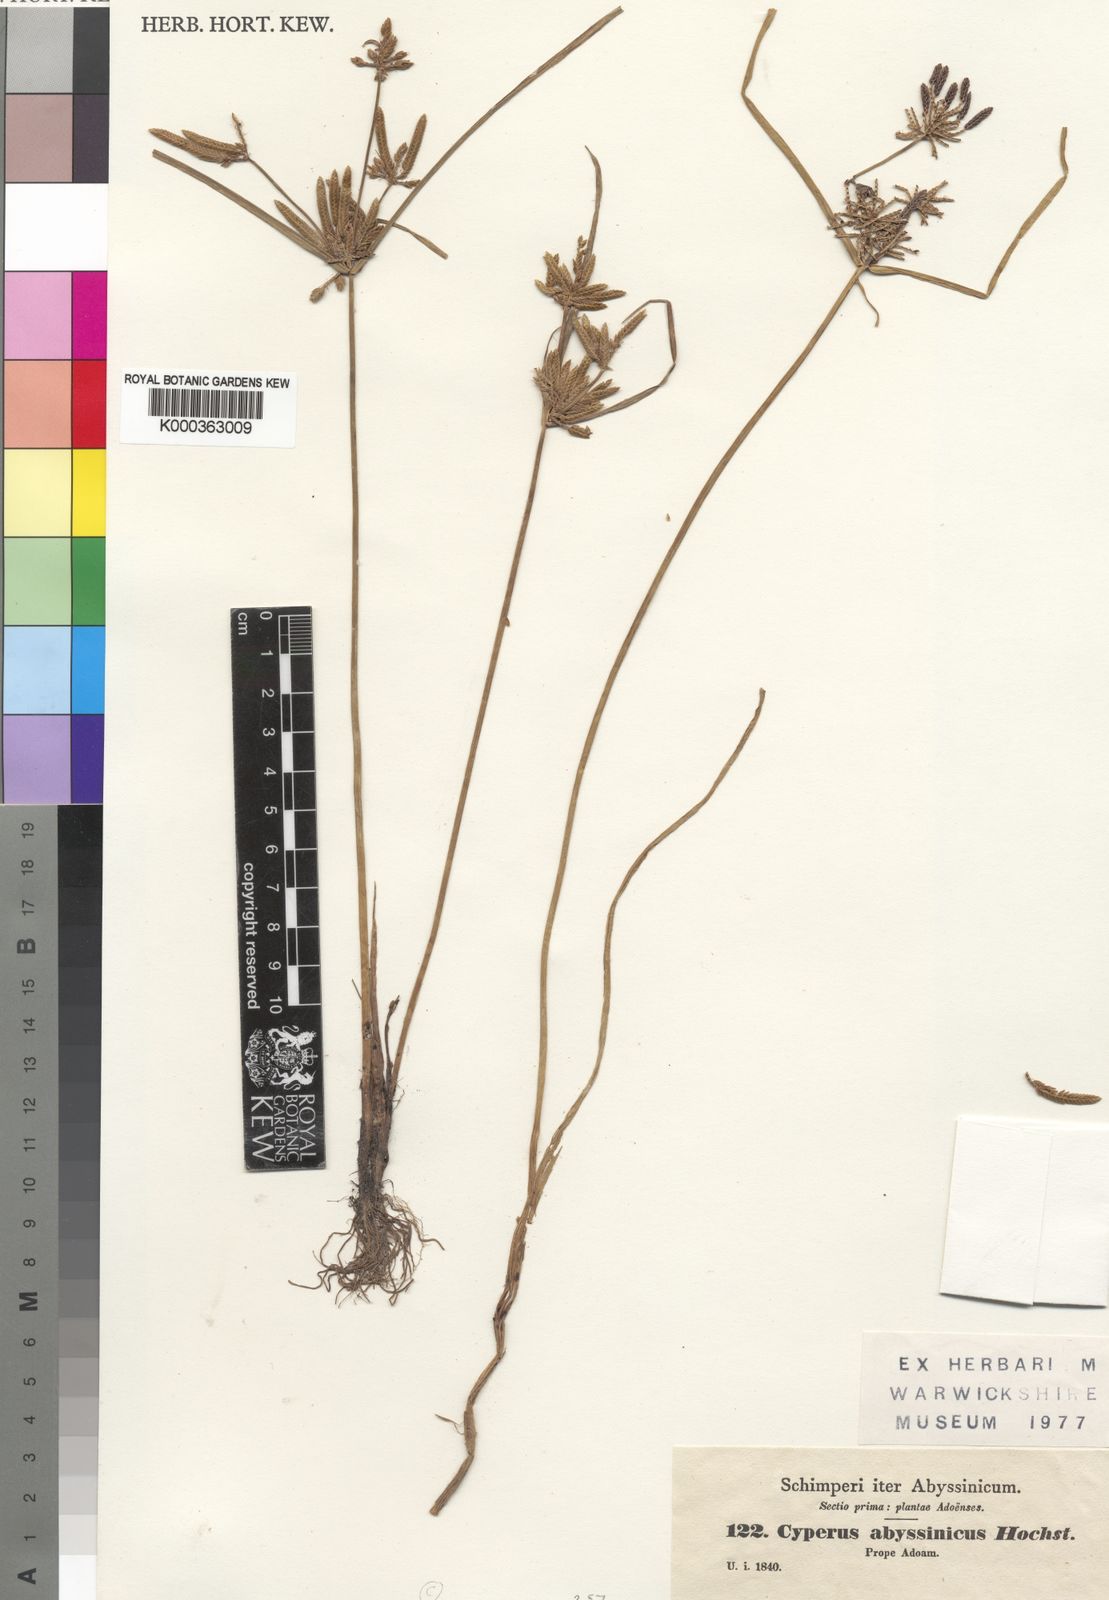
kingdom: Plantae
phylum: Tracheophyta
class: Liliopsida
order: Poales
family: Cyperaceae
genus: Cyperus
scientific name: Cyperus flavescens
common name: Yellow galingale
